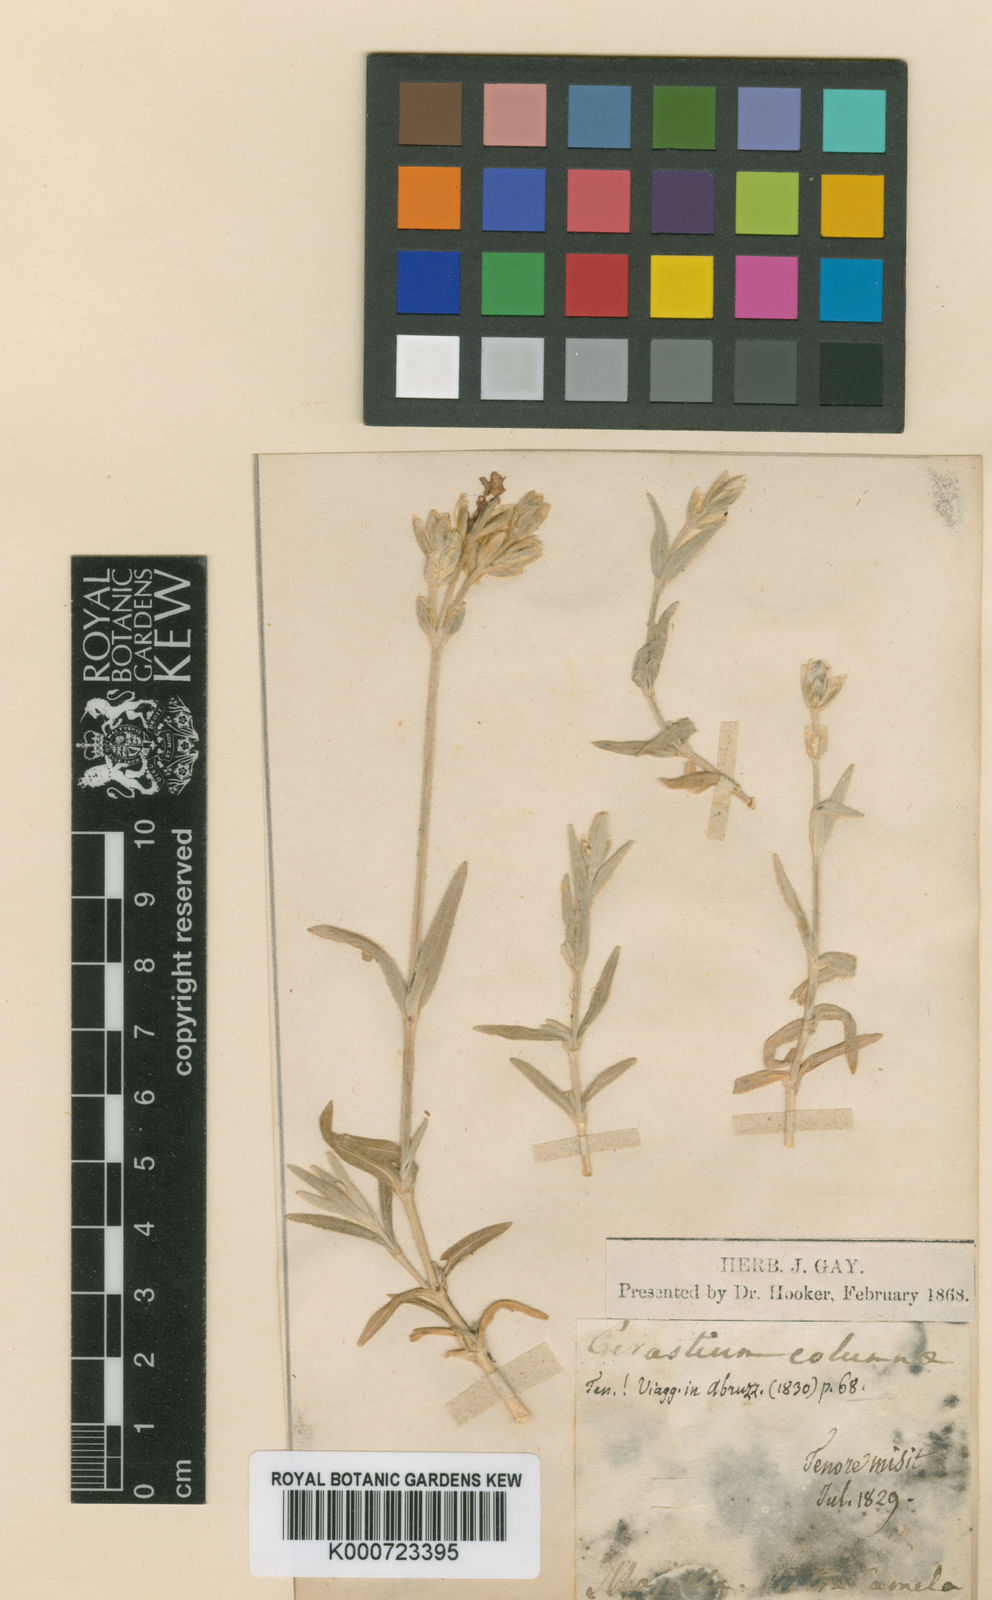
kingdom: Plantae
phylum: Tracheophyta
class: Magnoliopsida
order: Caryophyllales
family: Caryophyllaceae
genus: Cerastium
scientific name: Cerastium glomeratum
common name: Sticky chickweed
